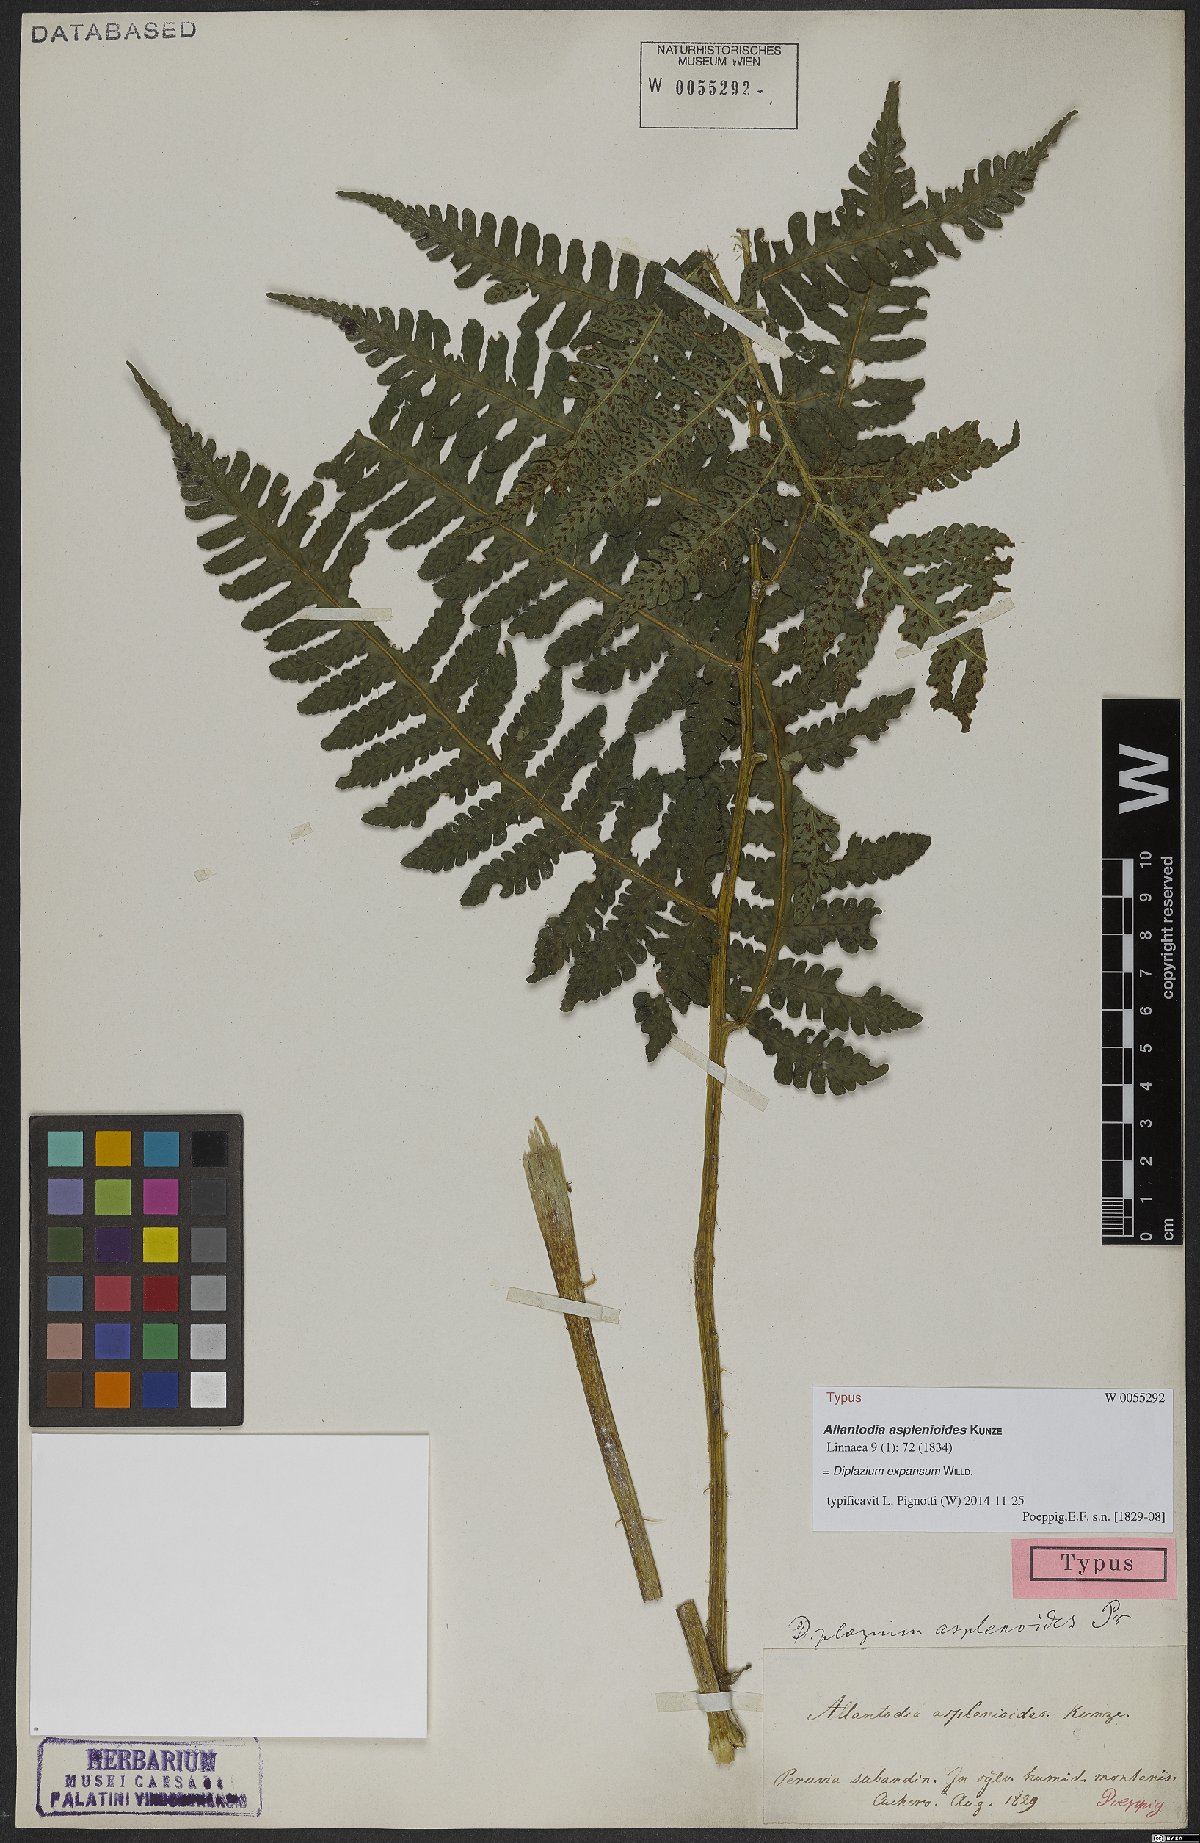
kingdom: Plantae
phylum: Tracheophyta
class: Polypodiopsida
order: Polypodiales
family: Athyriaceae
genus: Diplazium
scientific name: Diplazium expansum
